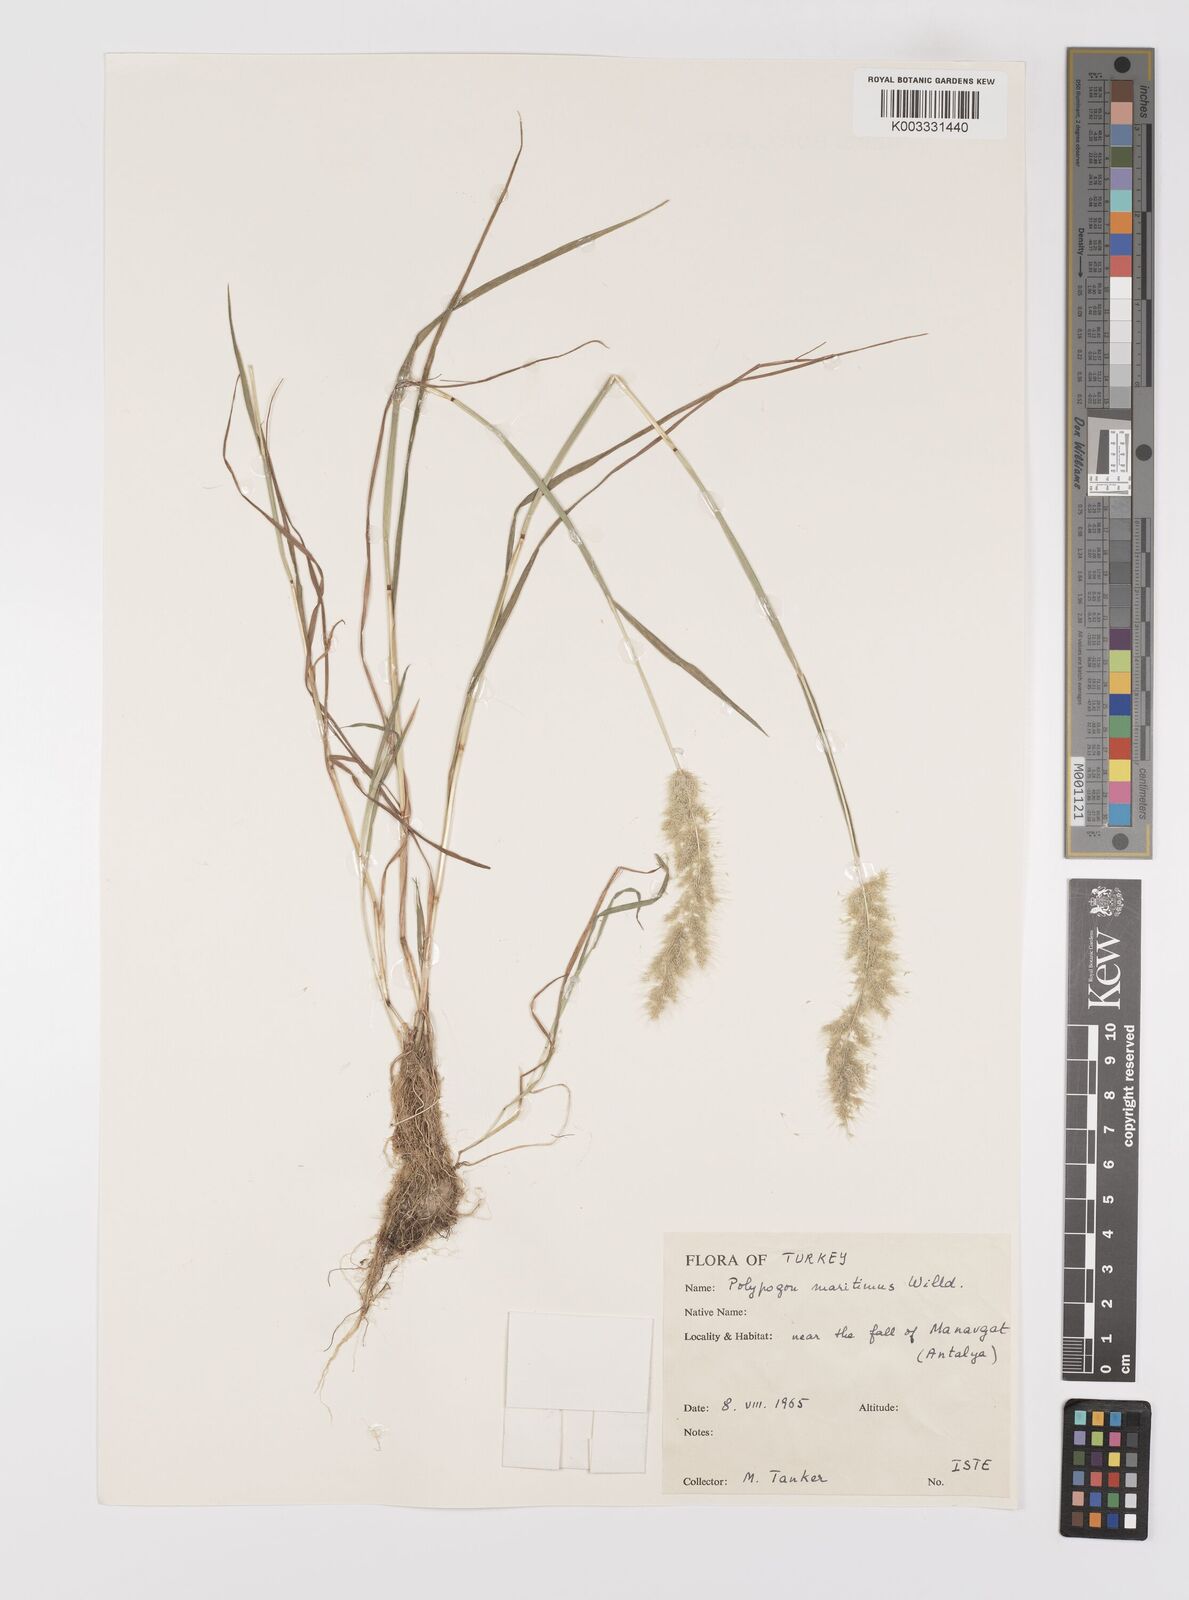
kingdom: Plantae
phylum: Tracheophyta
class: Liliopsida
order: Poales
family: Poaceae
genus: Polypogon
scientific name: Polypogon maritimus
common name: Mediterranean rabbitsfoot grass
